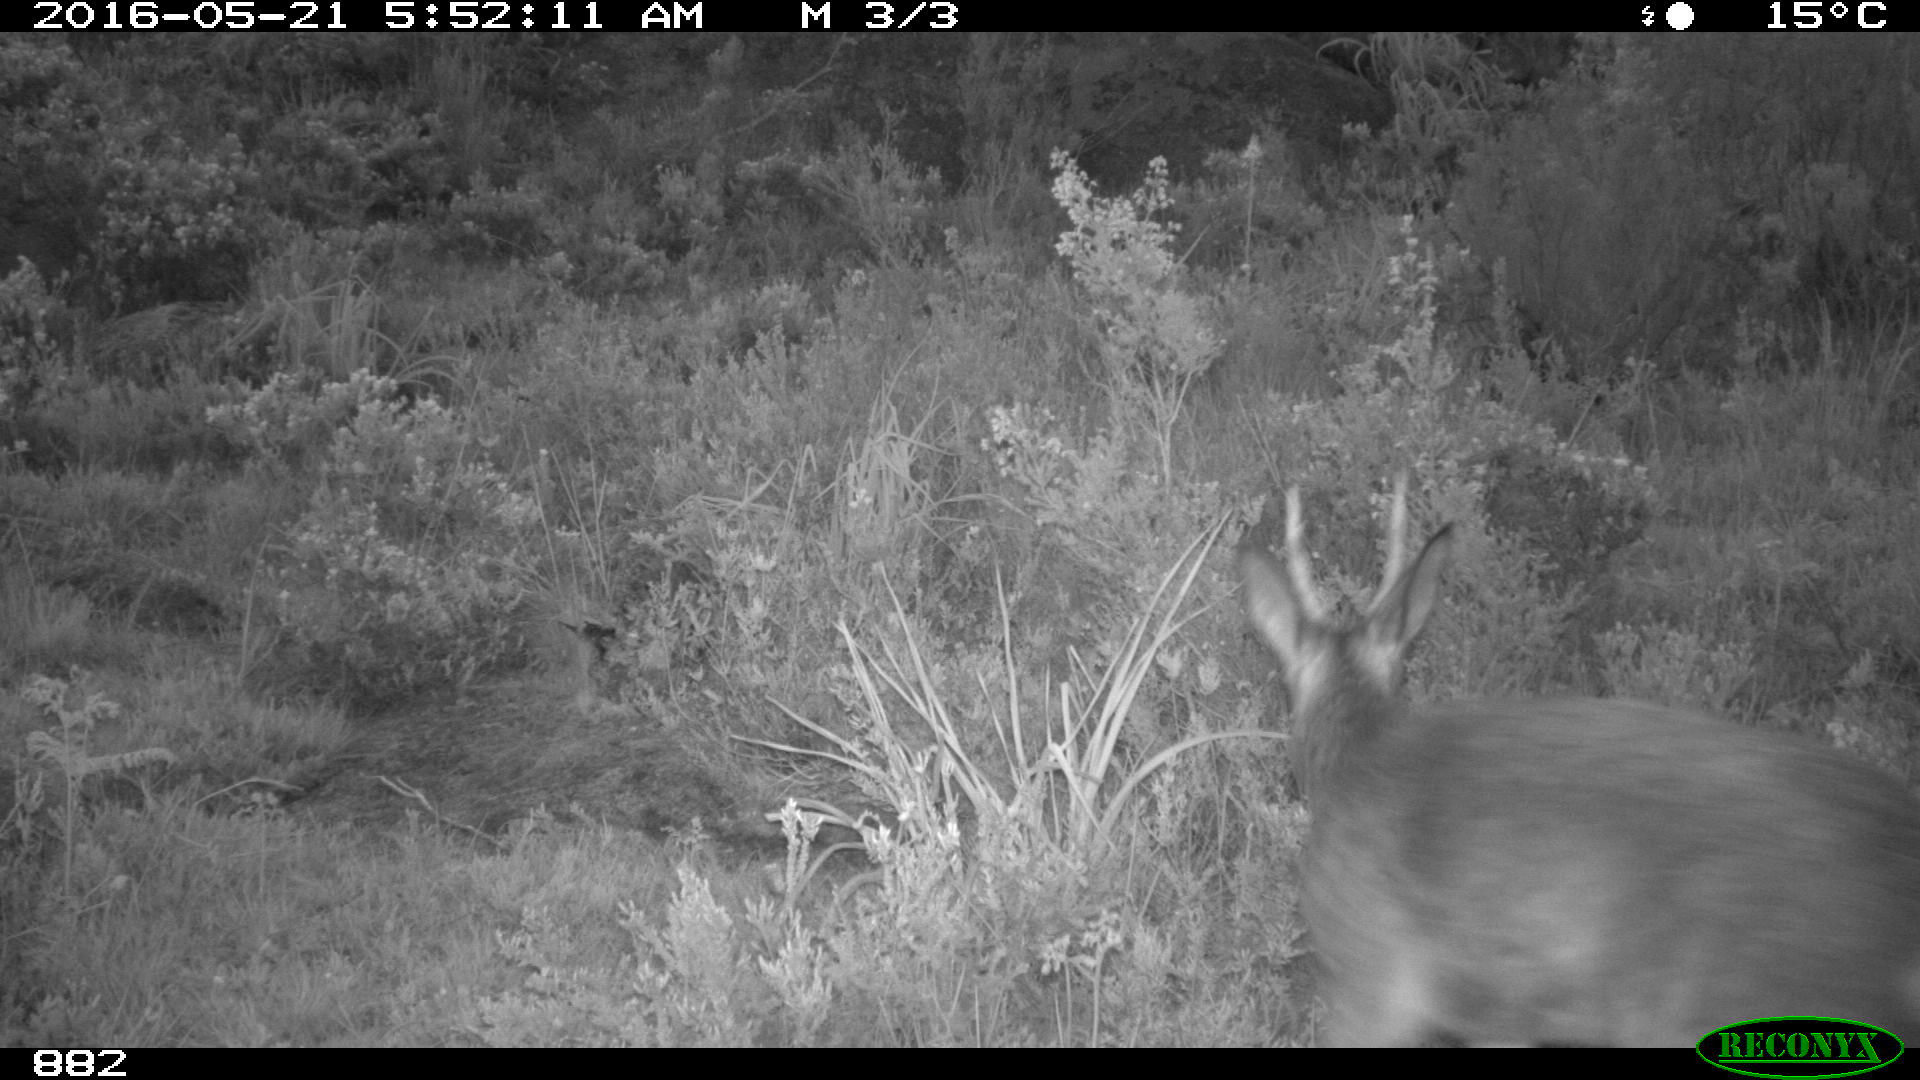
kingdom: Animalia
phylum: Chordata
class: Mammalia
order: Artiodactyla
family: Cervidae
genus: Capreolus
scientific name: Capreolus capreolus
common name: Western roe deer
